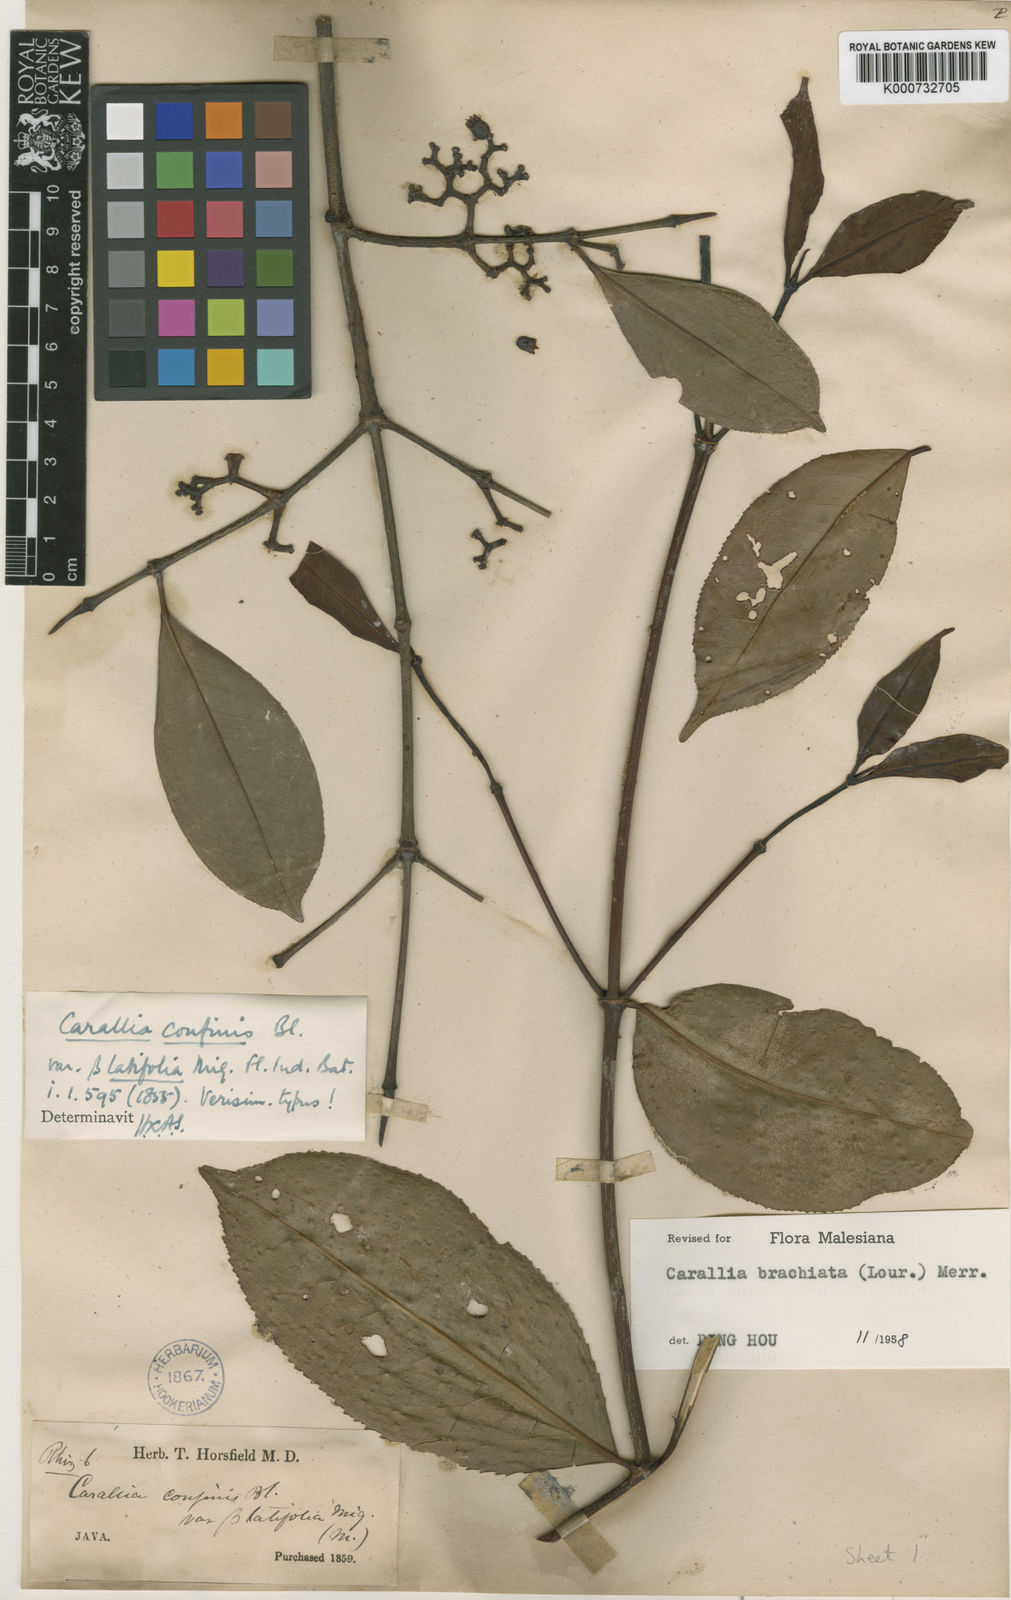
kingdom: Plantae
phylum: Tracheophyta
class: Magnoliopsida
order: Malpighiales
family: Rhizophoraceae
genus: Carallia
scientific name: Carallia brachiata
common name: Carallawood
